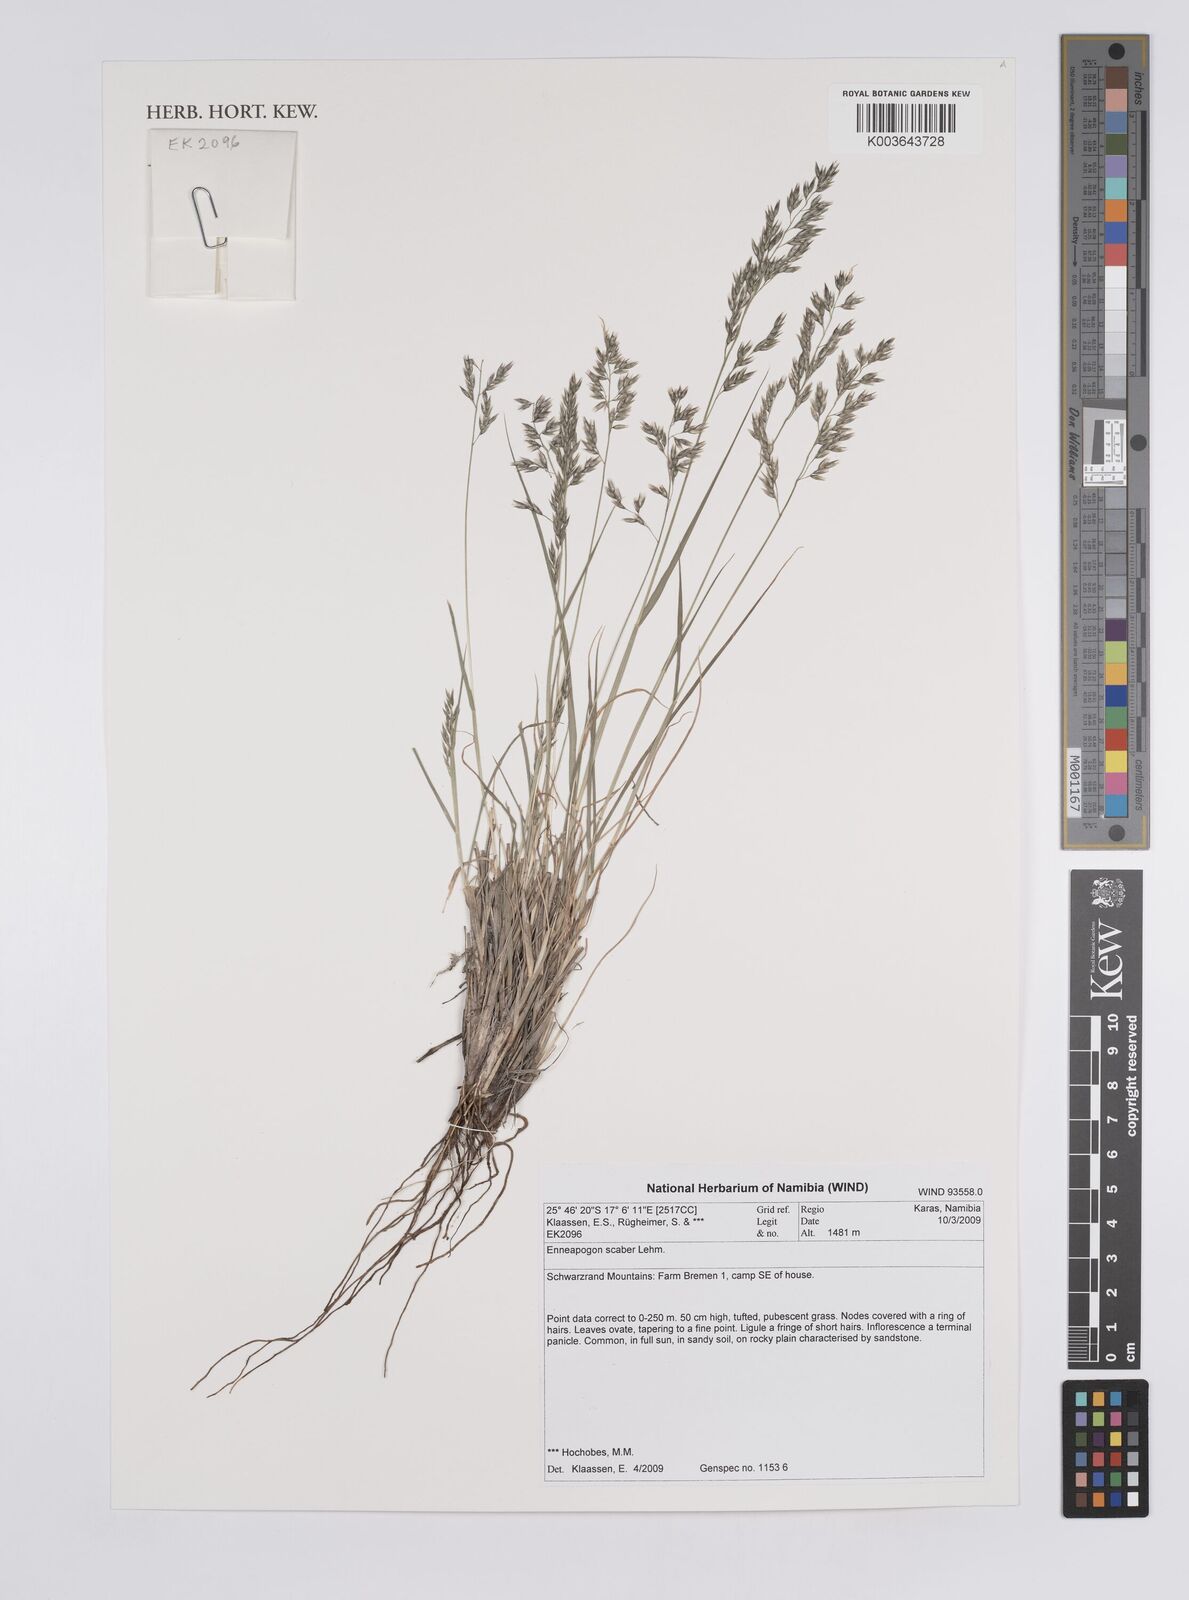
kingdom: Plantae
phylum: Tracheophyta
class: Liliopsida
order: Poales
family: Poaceae
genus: Enneapogon
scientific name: Enneapogon scaber
